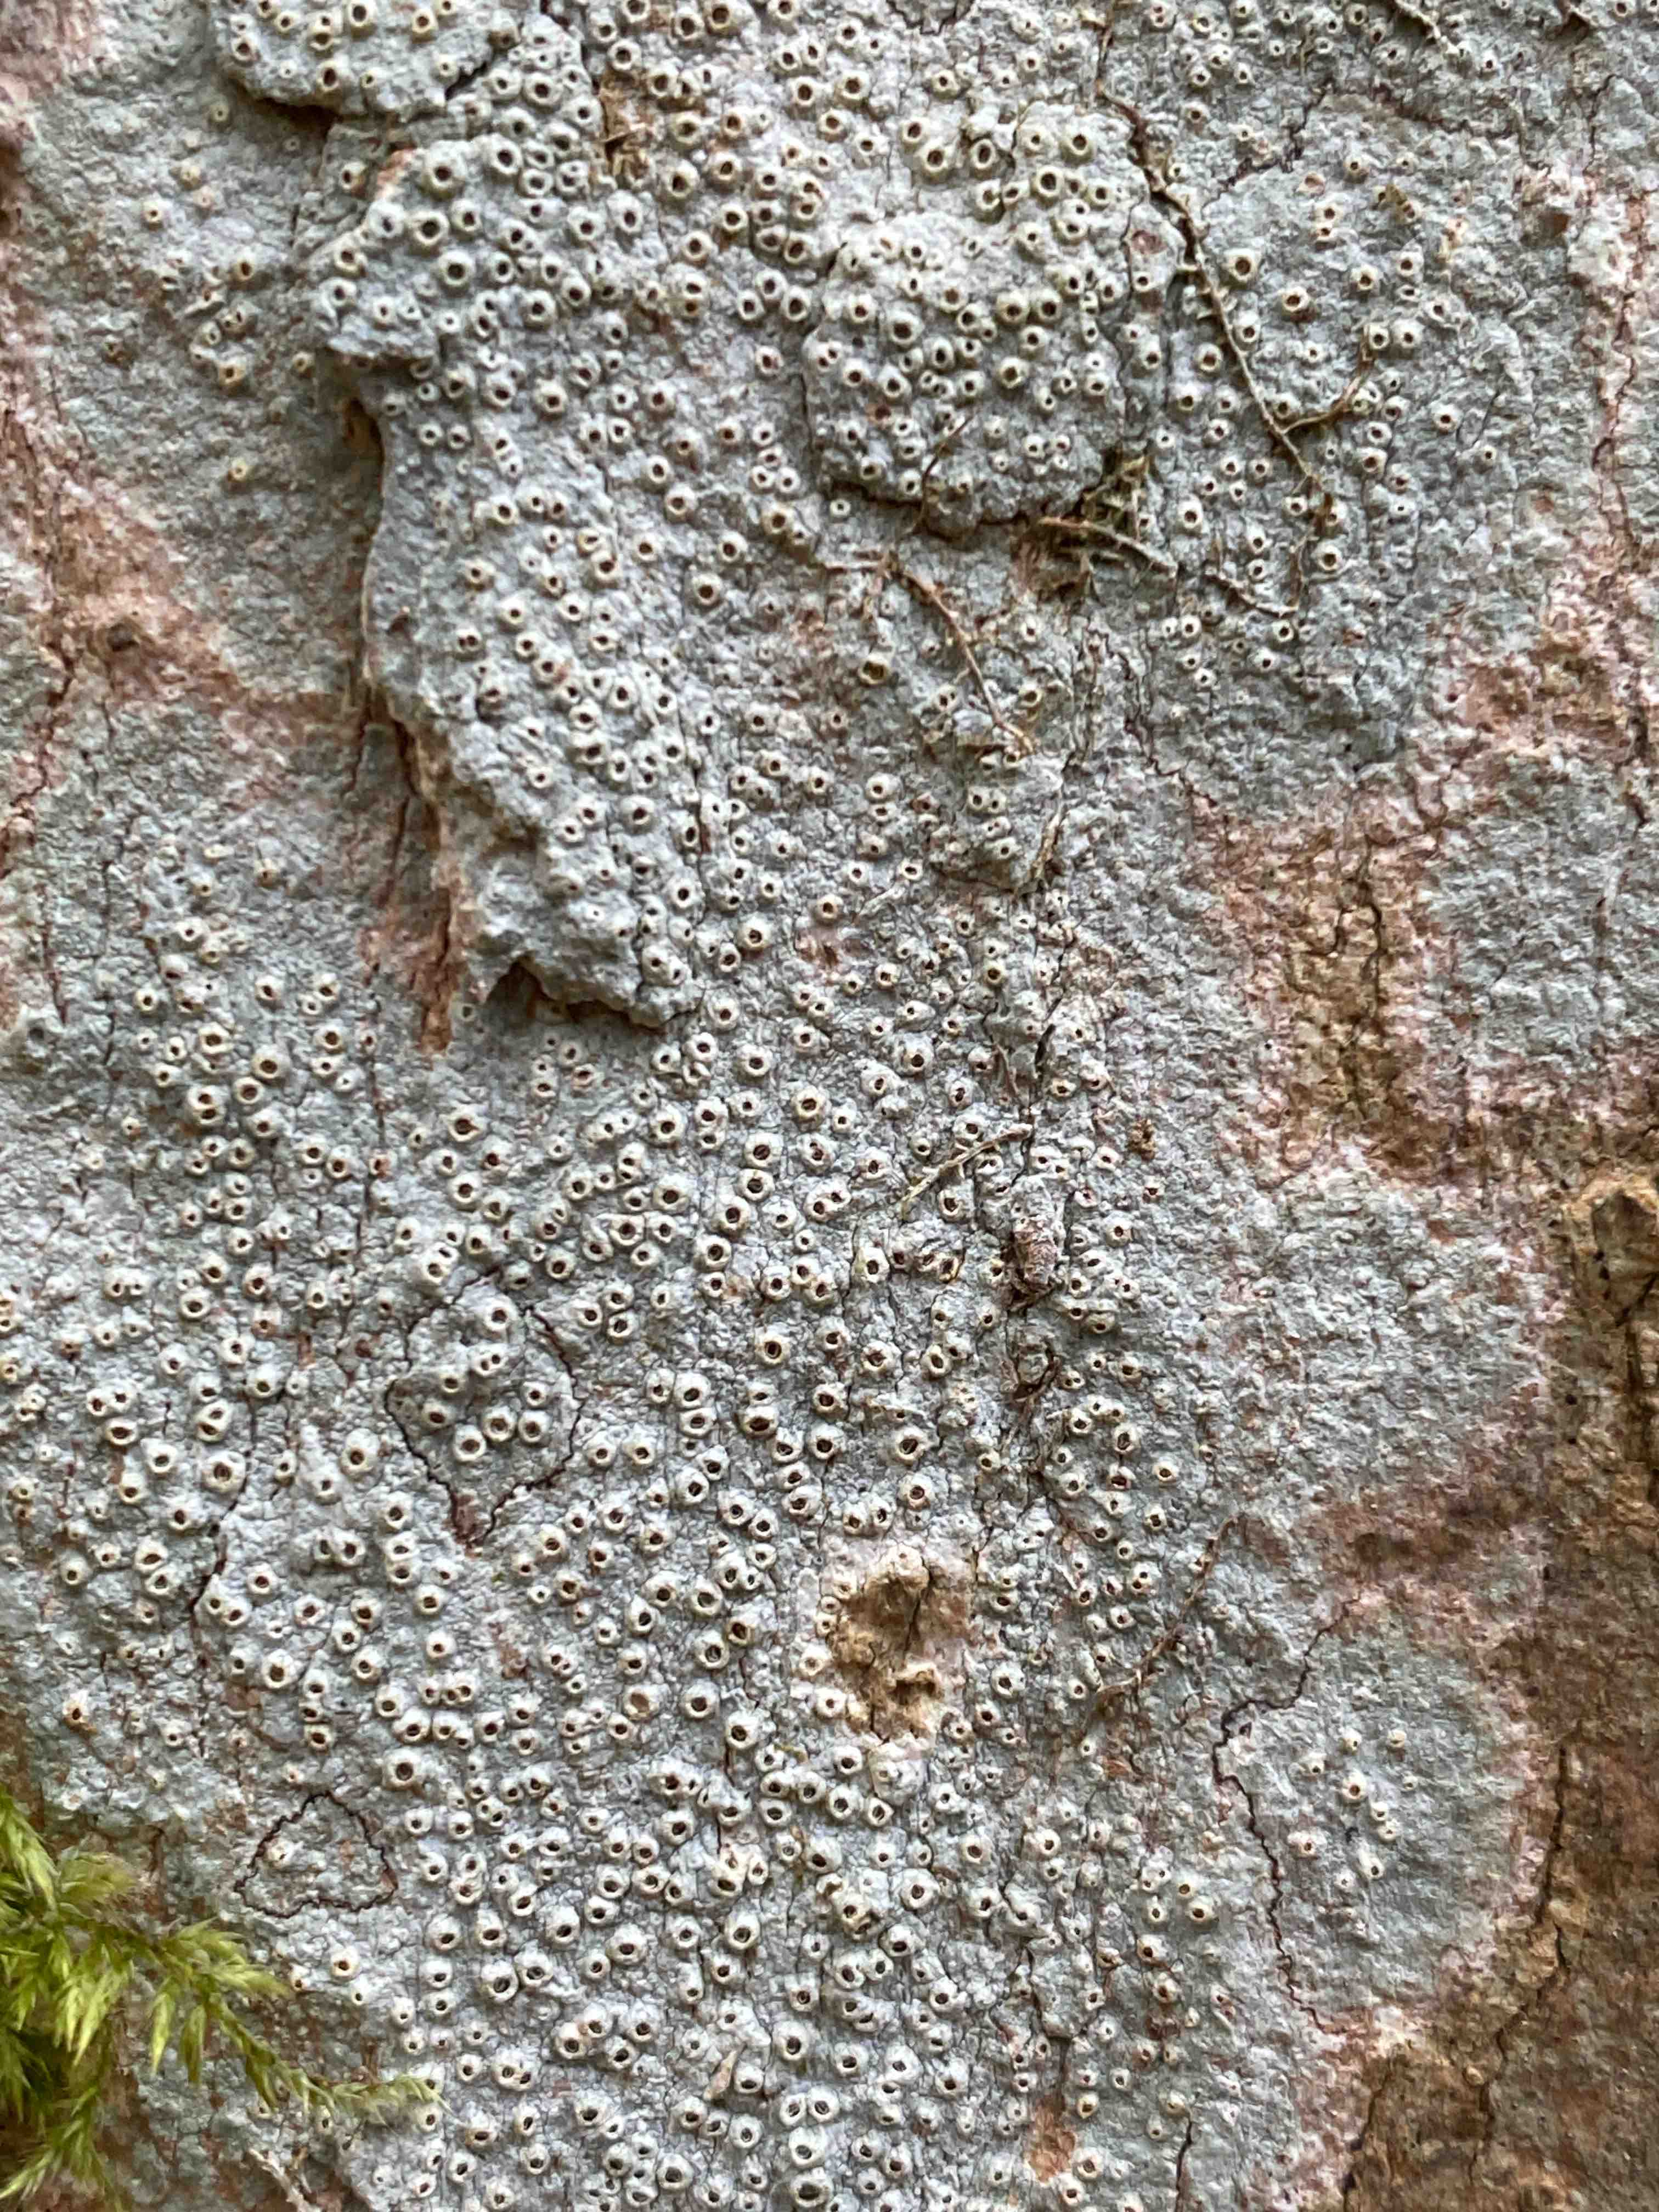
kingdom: Fungi
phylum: Ascomycota
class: Lecanoromycetes
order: Ostropales
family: Graphidaceae
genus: Thelotrema
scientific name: Thelotrema lepadinum
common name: almindelig slørkantlav
